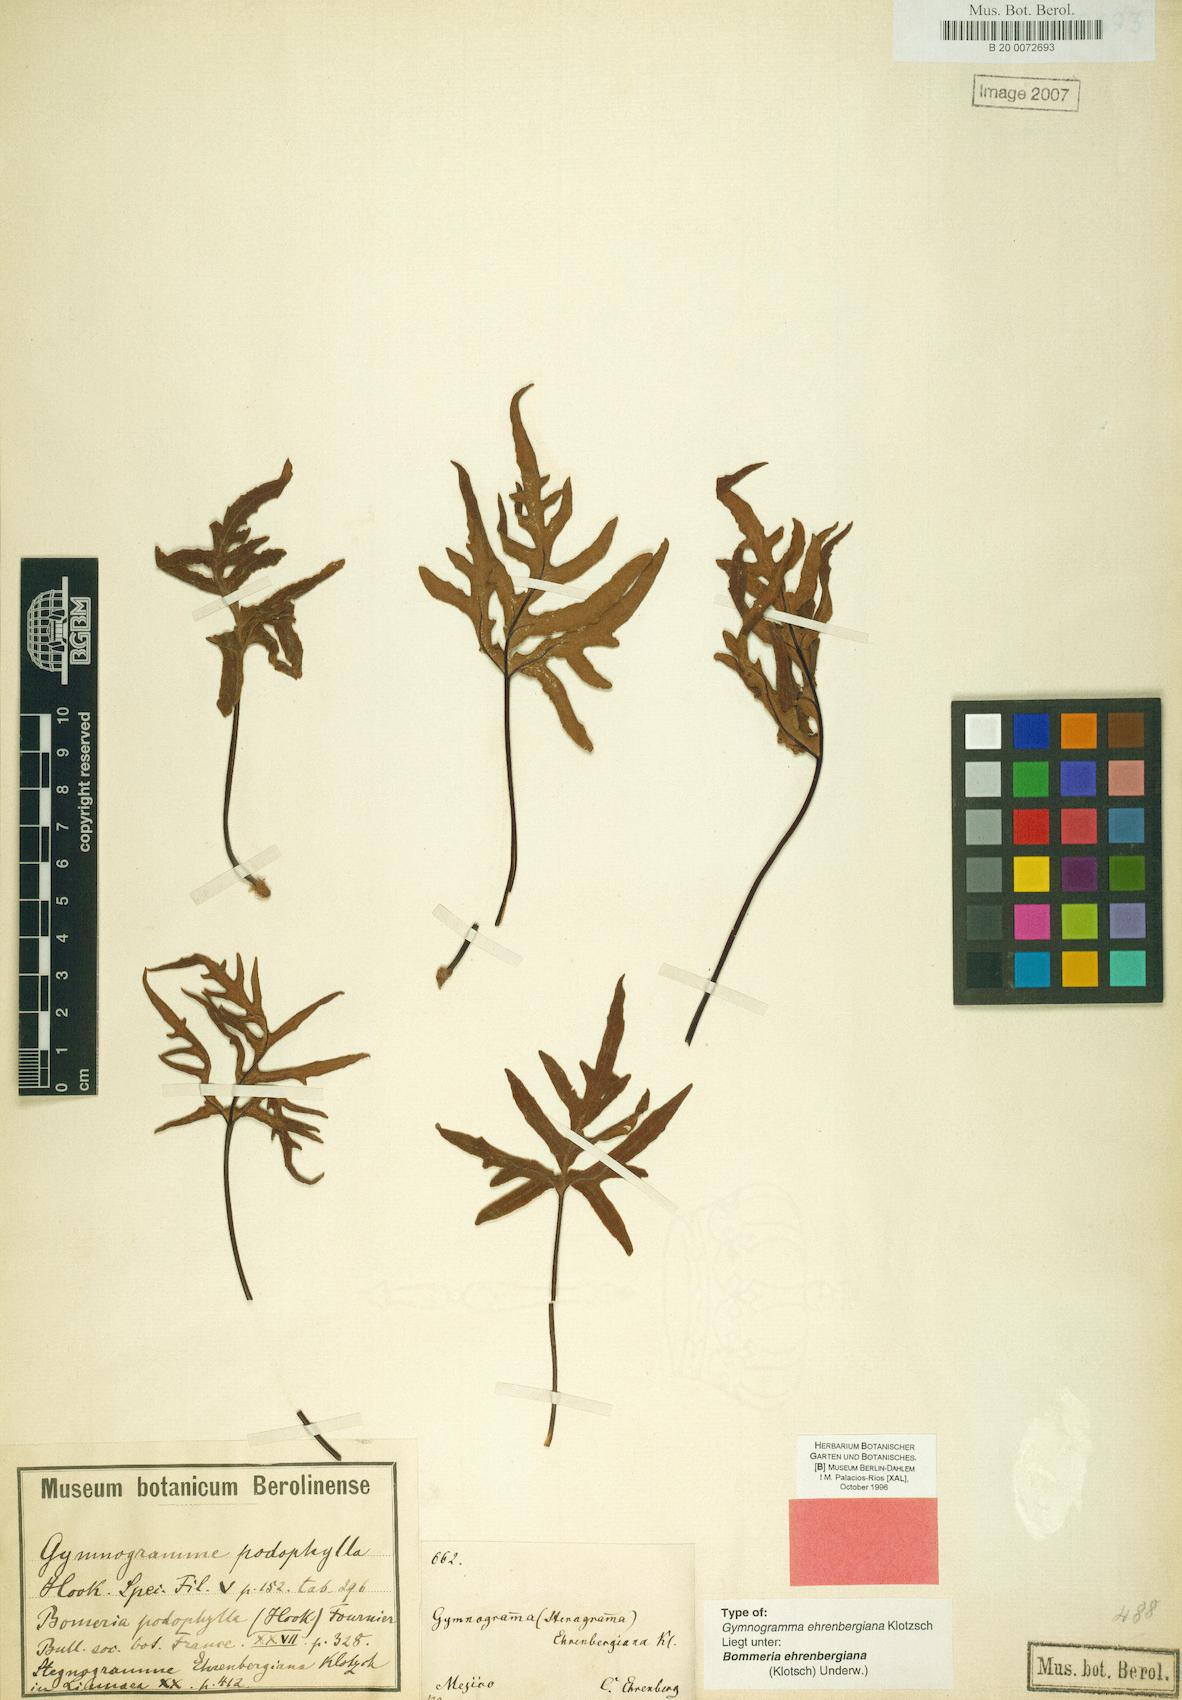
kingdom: Plantae
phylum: Tracheophyta
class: Polypodiopsida
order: Polypodiales
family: Pteridaceae
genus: Bommeria
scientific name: Bommeria ehrenbergiana
